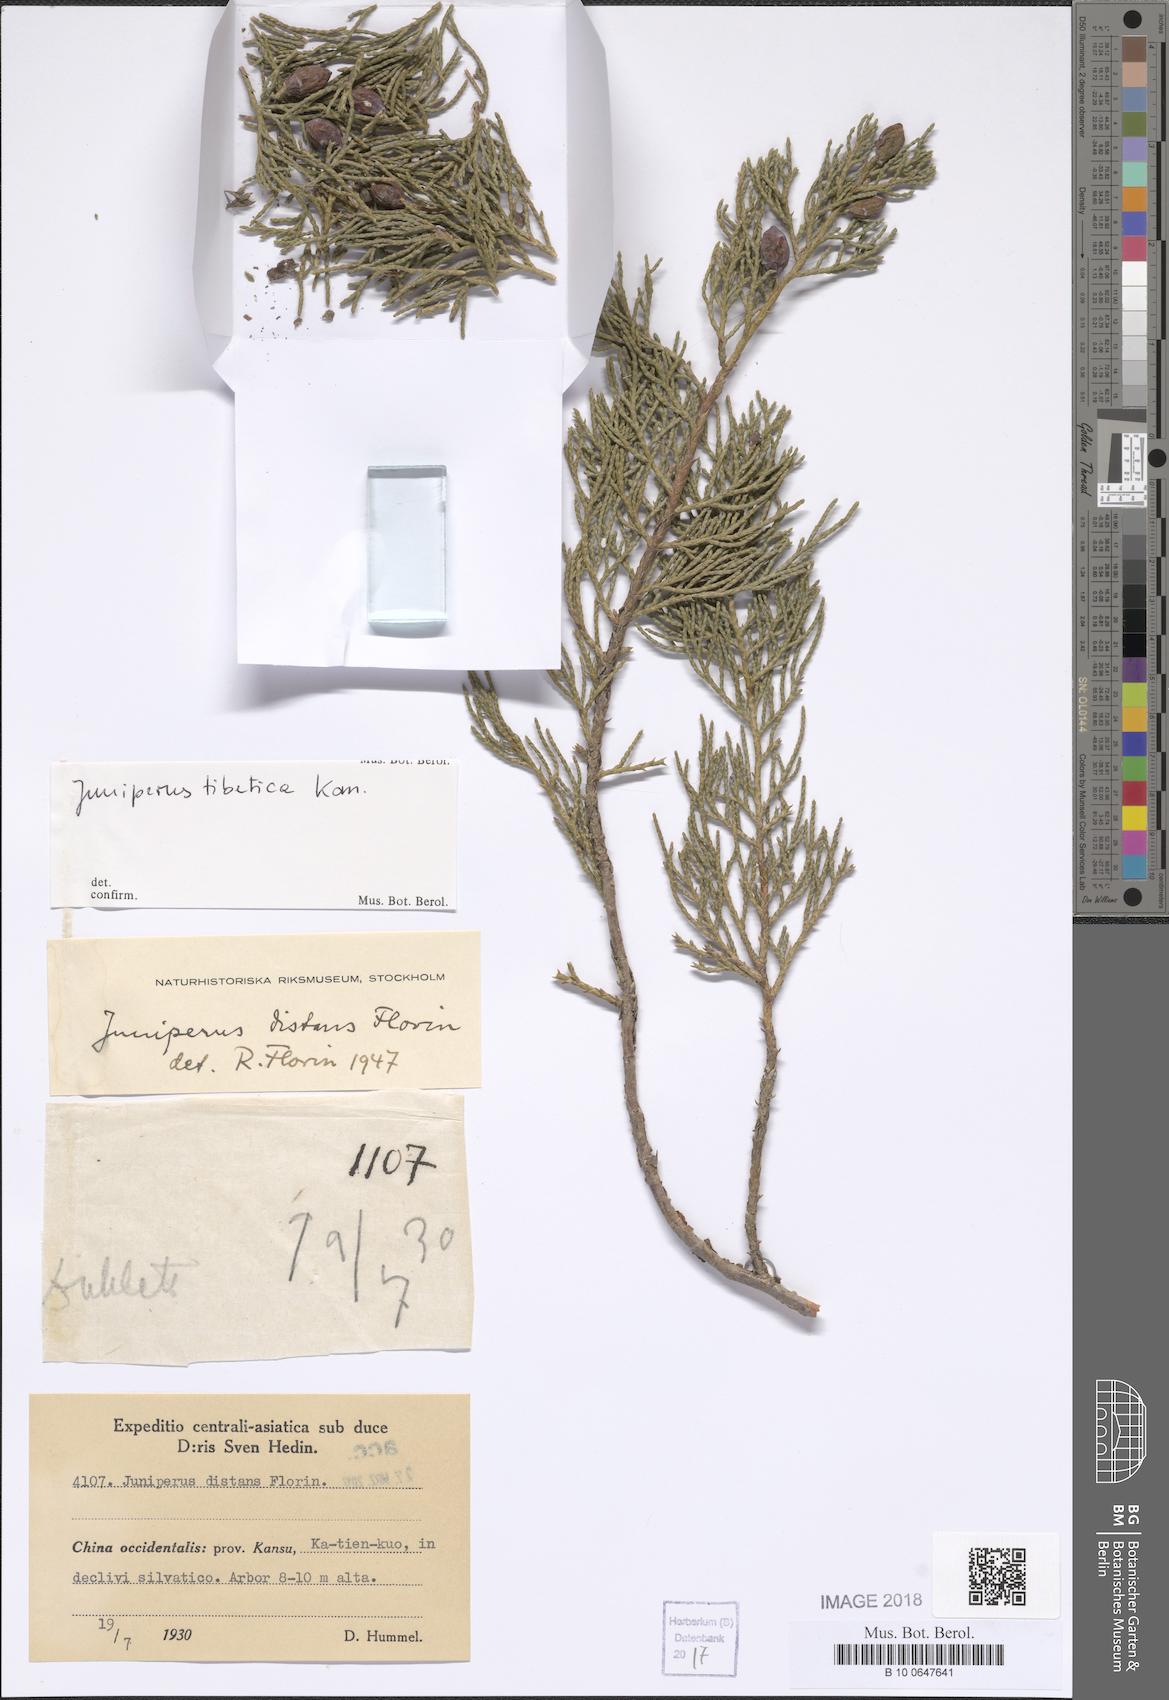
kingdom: Plantae
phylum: Tracheophyta
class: Pinopsida
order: Pinales
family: Cupressaceae
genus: Juniperus
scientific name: Juniperus tibetica
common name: Tibetan juniper
